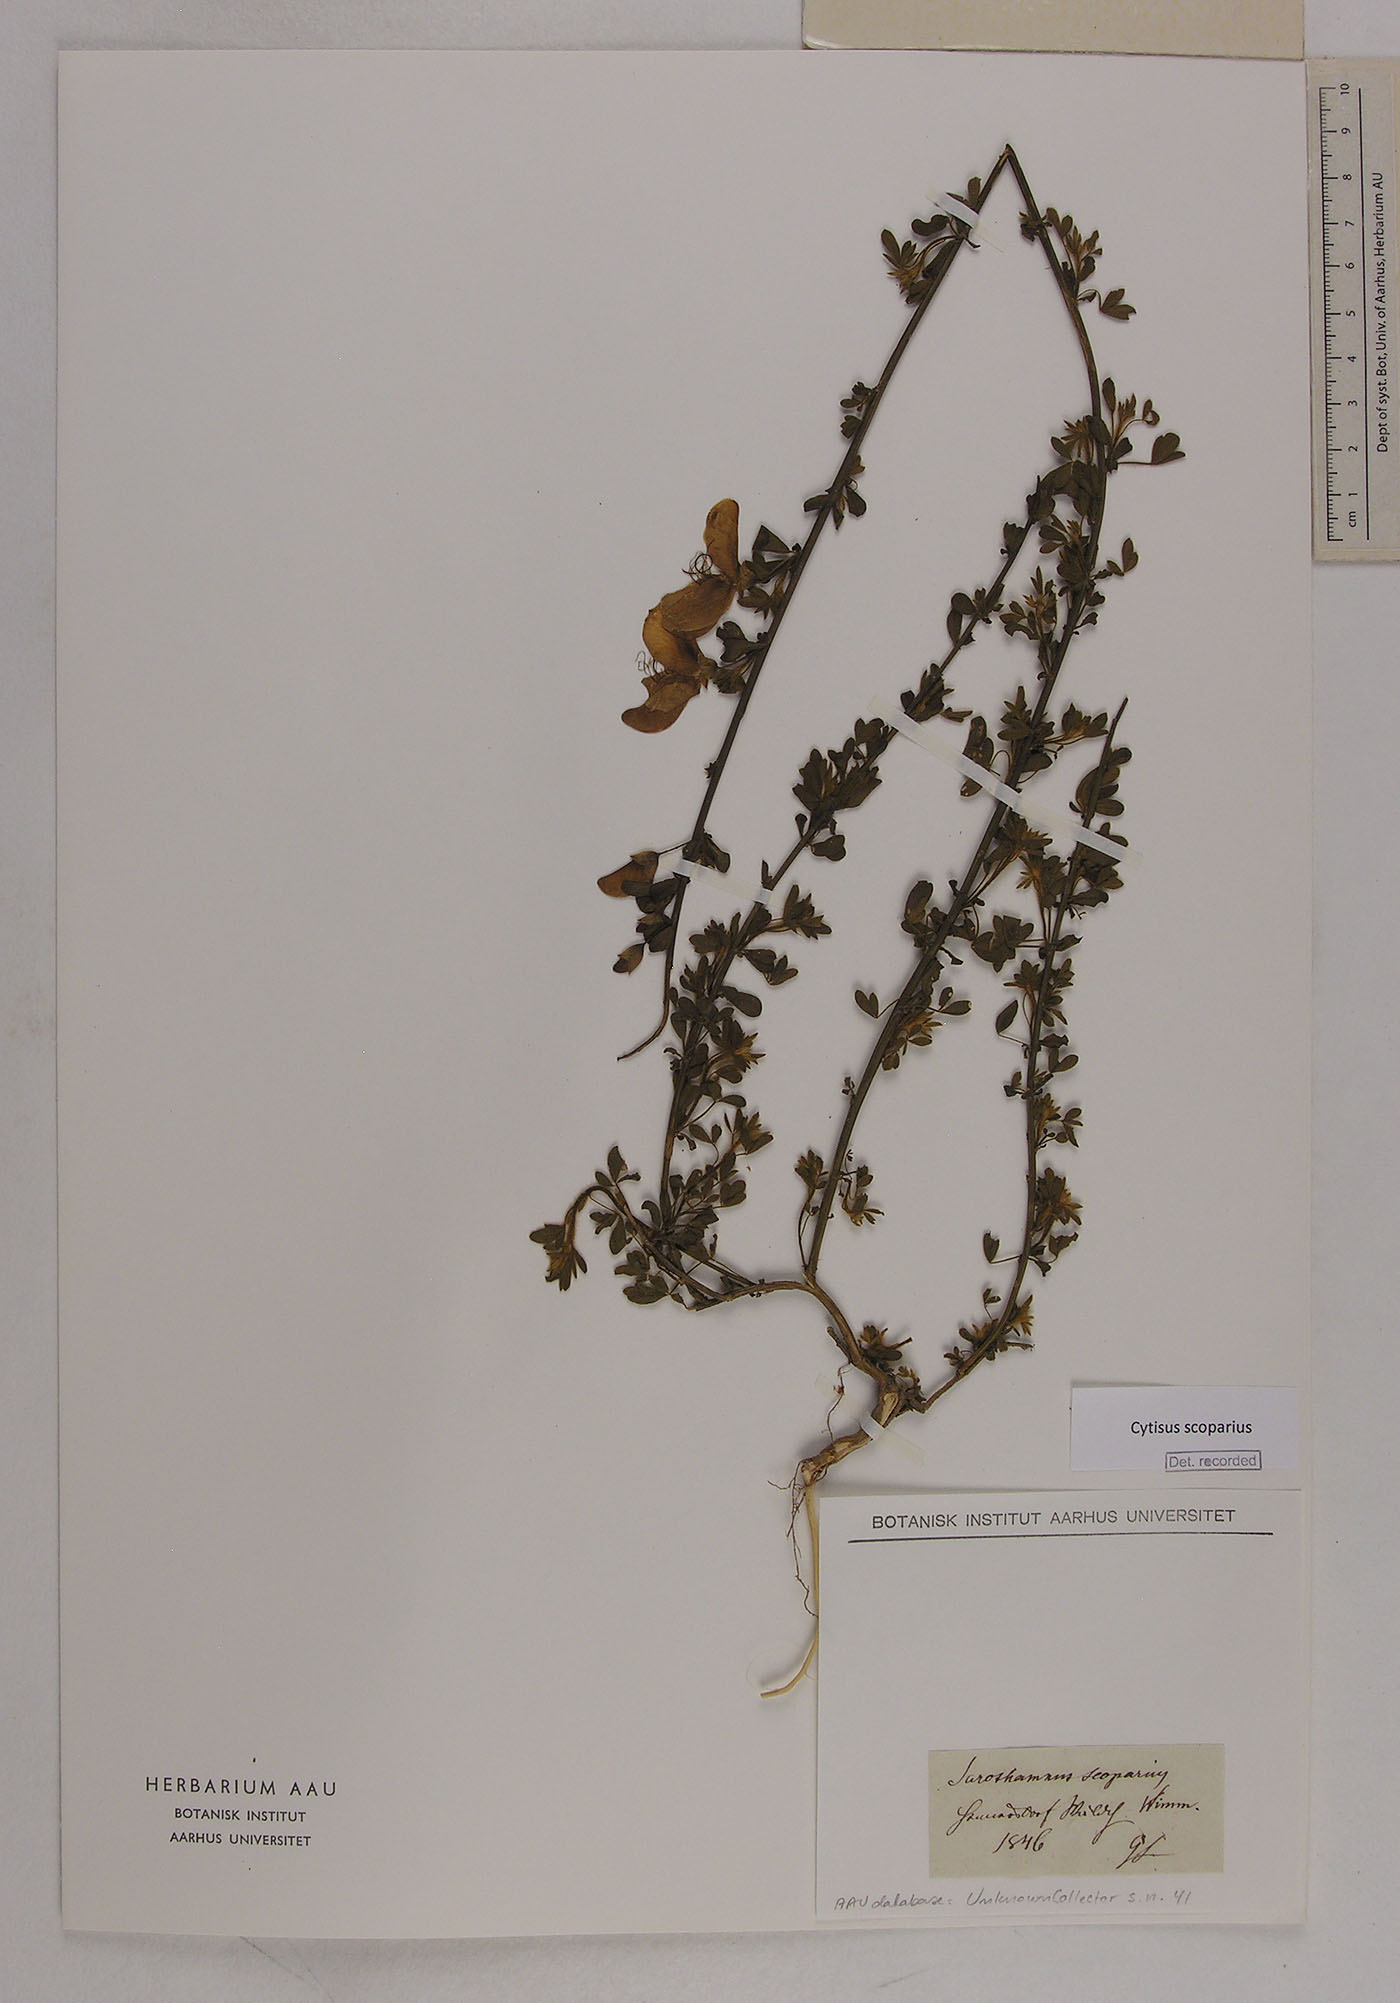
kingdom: Plantae
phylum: Tracheophyta
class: Magnoliopsida
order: Fabales
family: Fabaceae
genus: Cytisus
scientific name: Cytisus scoparius
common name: Scotch broom
